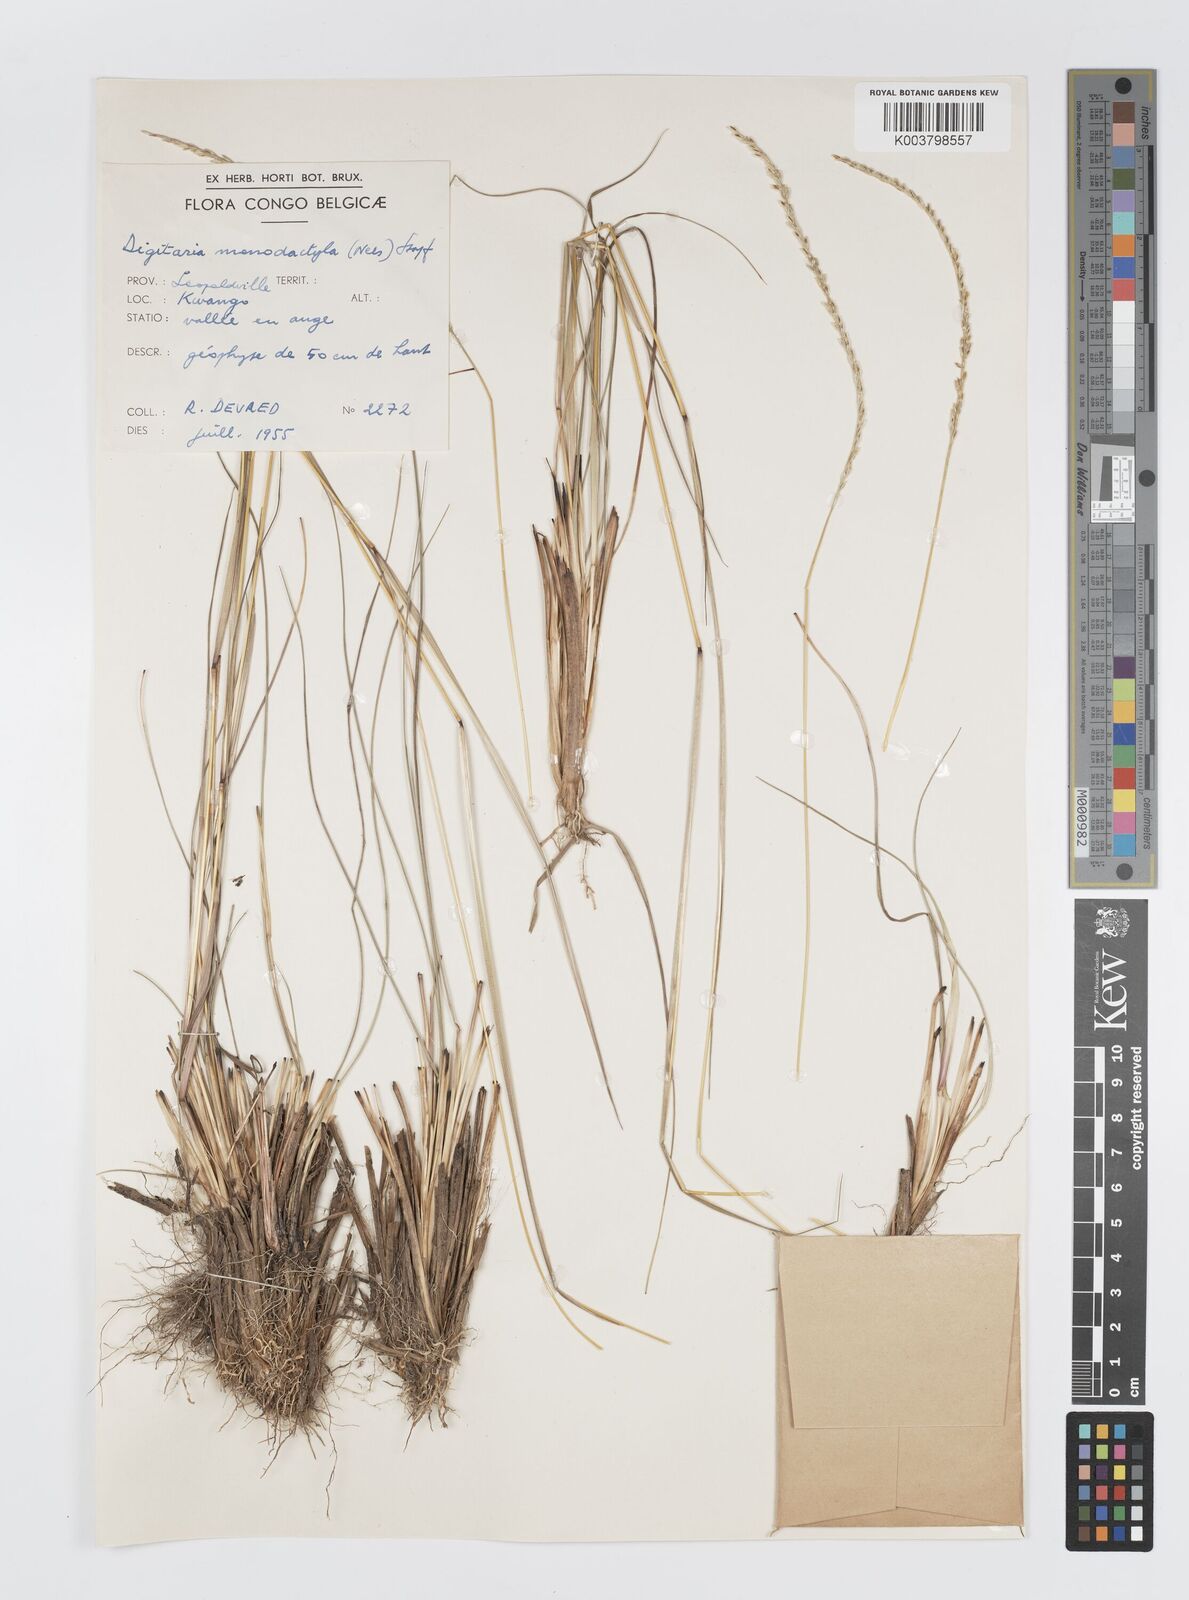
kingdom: Plantae
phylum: Tracheophyta
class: Liliopsida
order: Poales
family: Poaceae
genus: Digitaria
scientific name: Digitaria monodactyla
